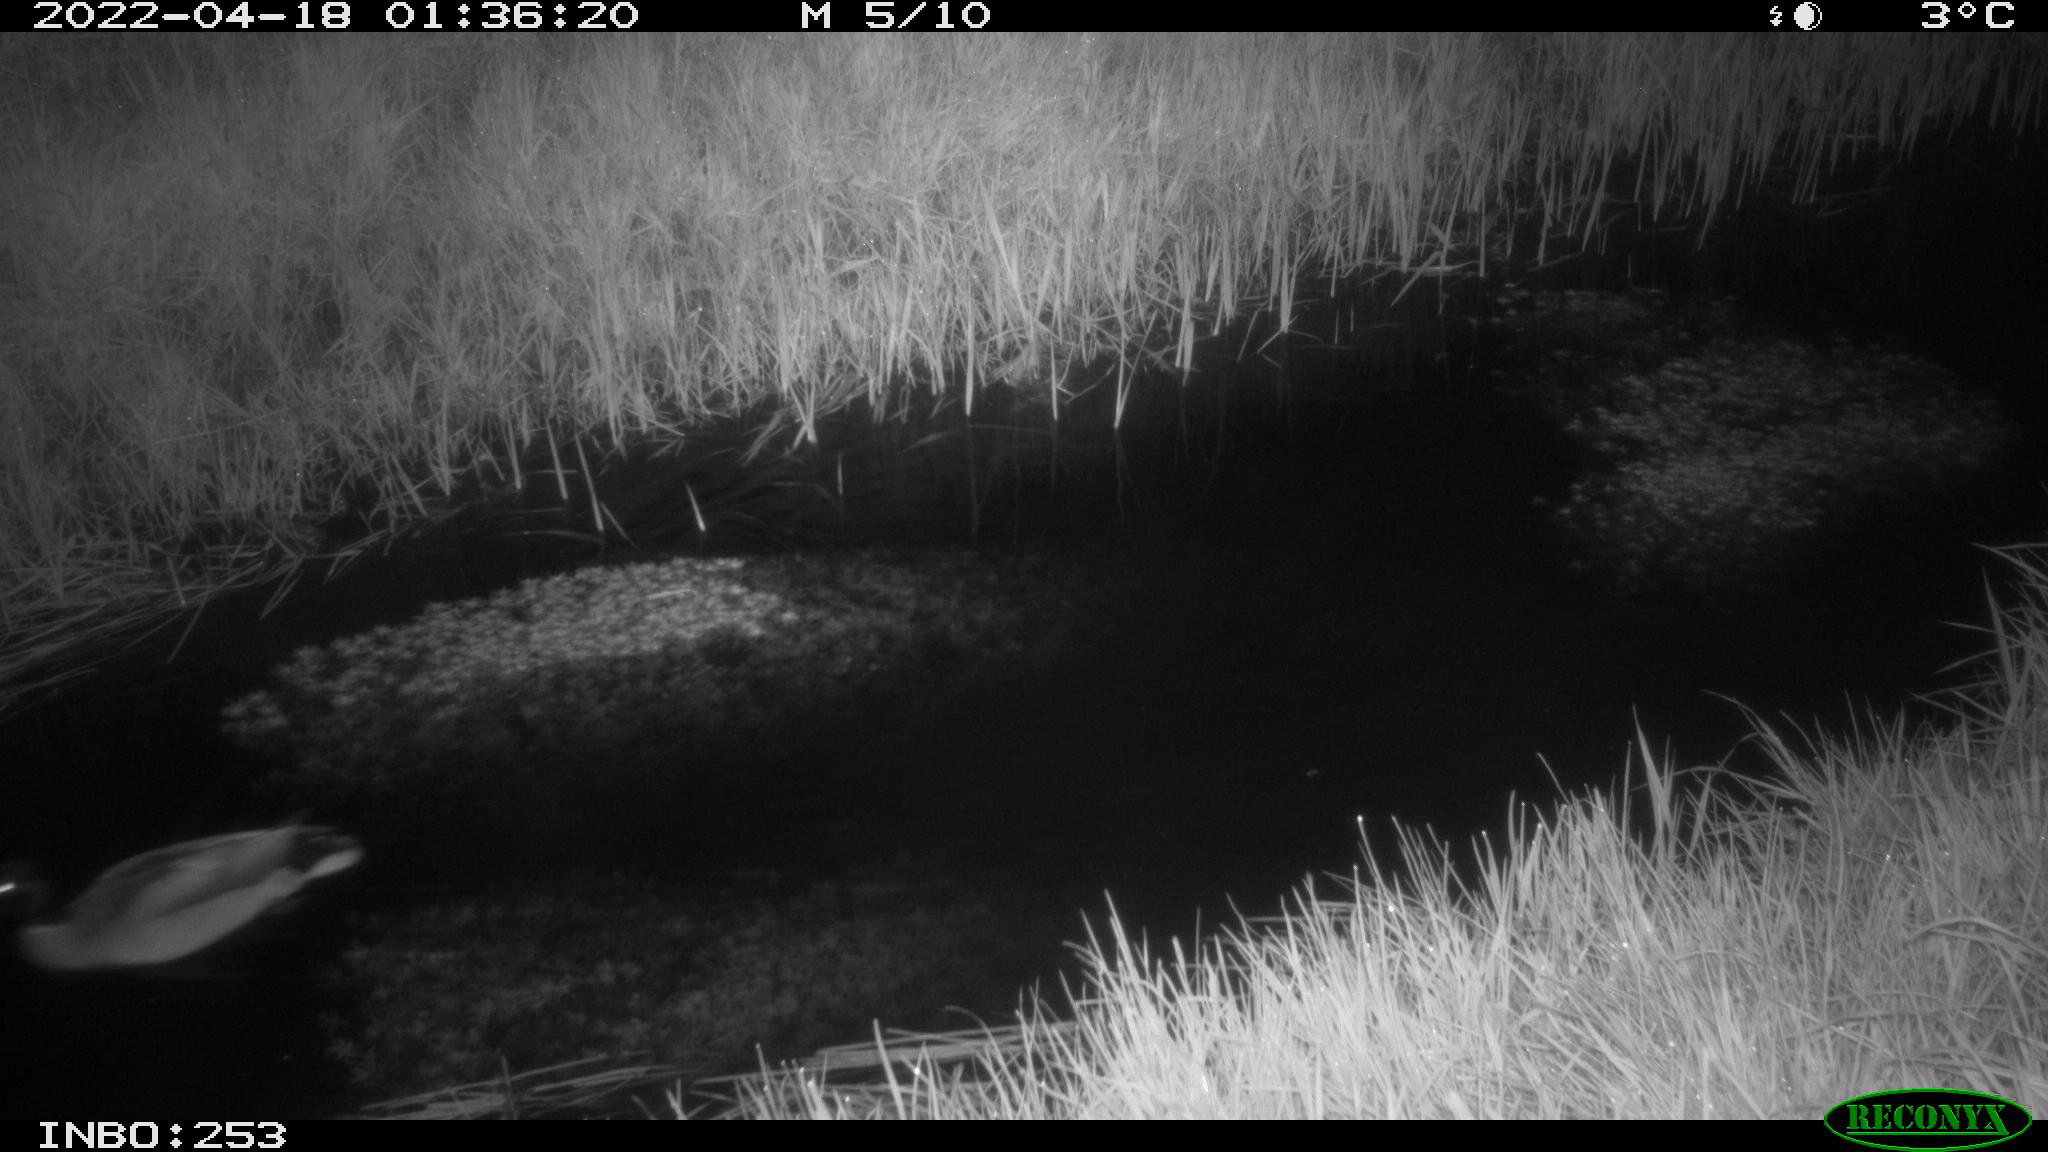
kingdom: Animalia
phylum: Chordata
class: Aves
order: Anseriformes
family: Anatidae
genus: Anas
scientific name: Anas platyrhynchos
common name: Mallard
